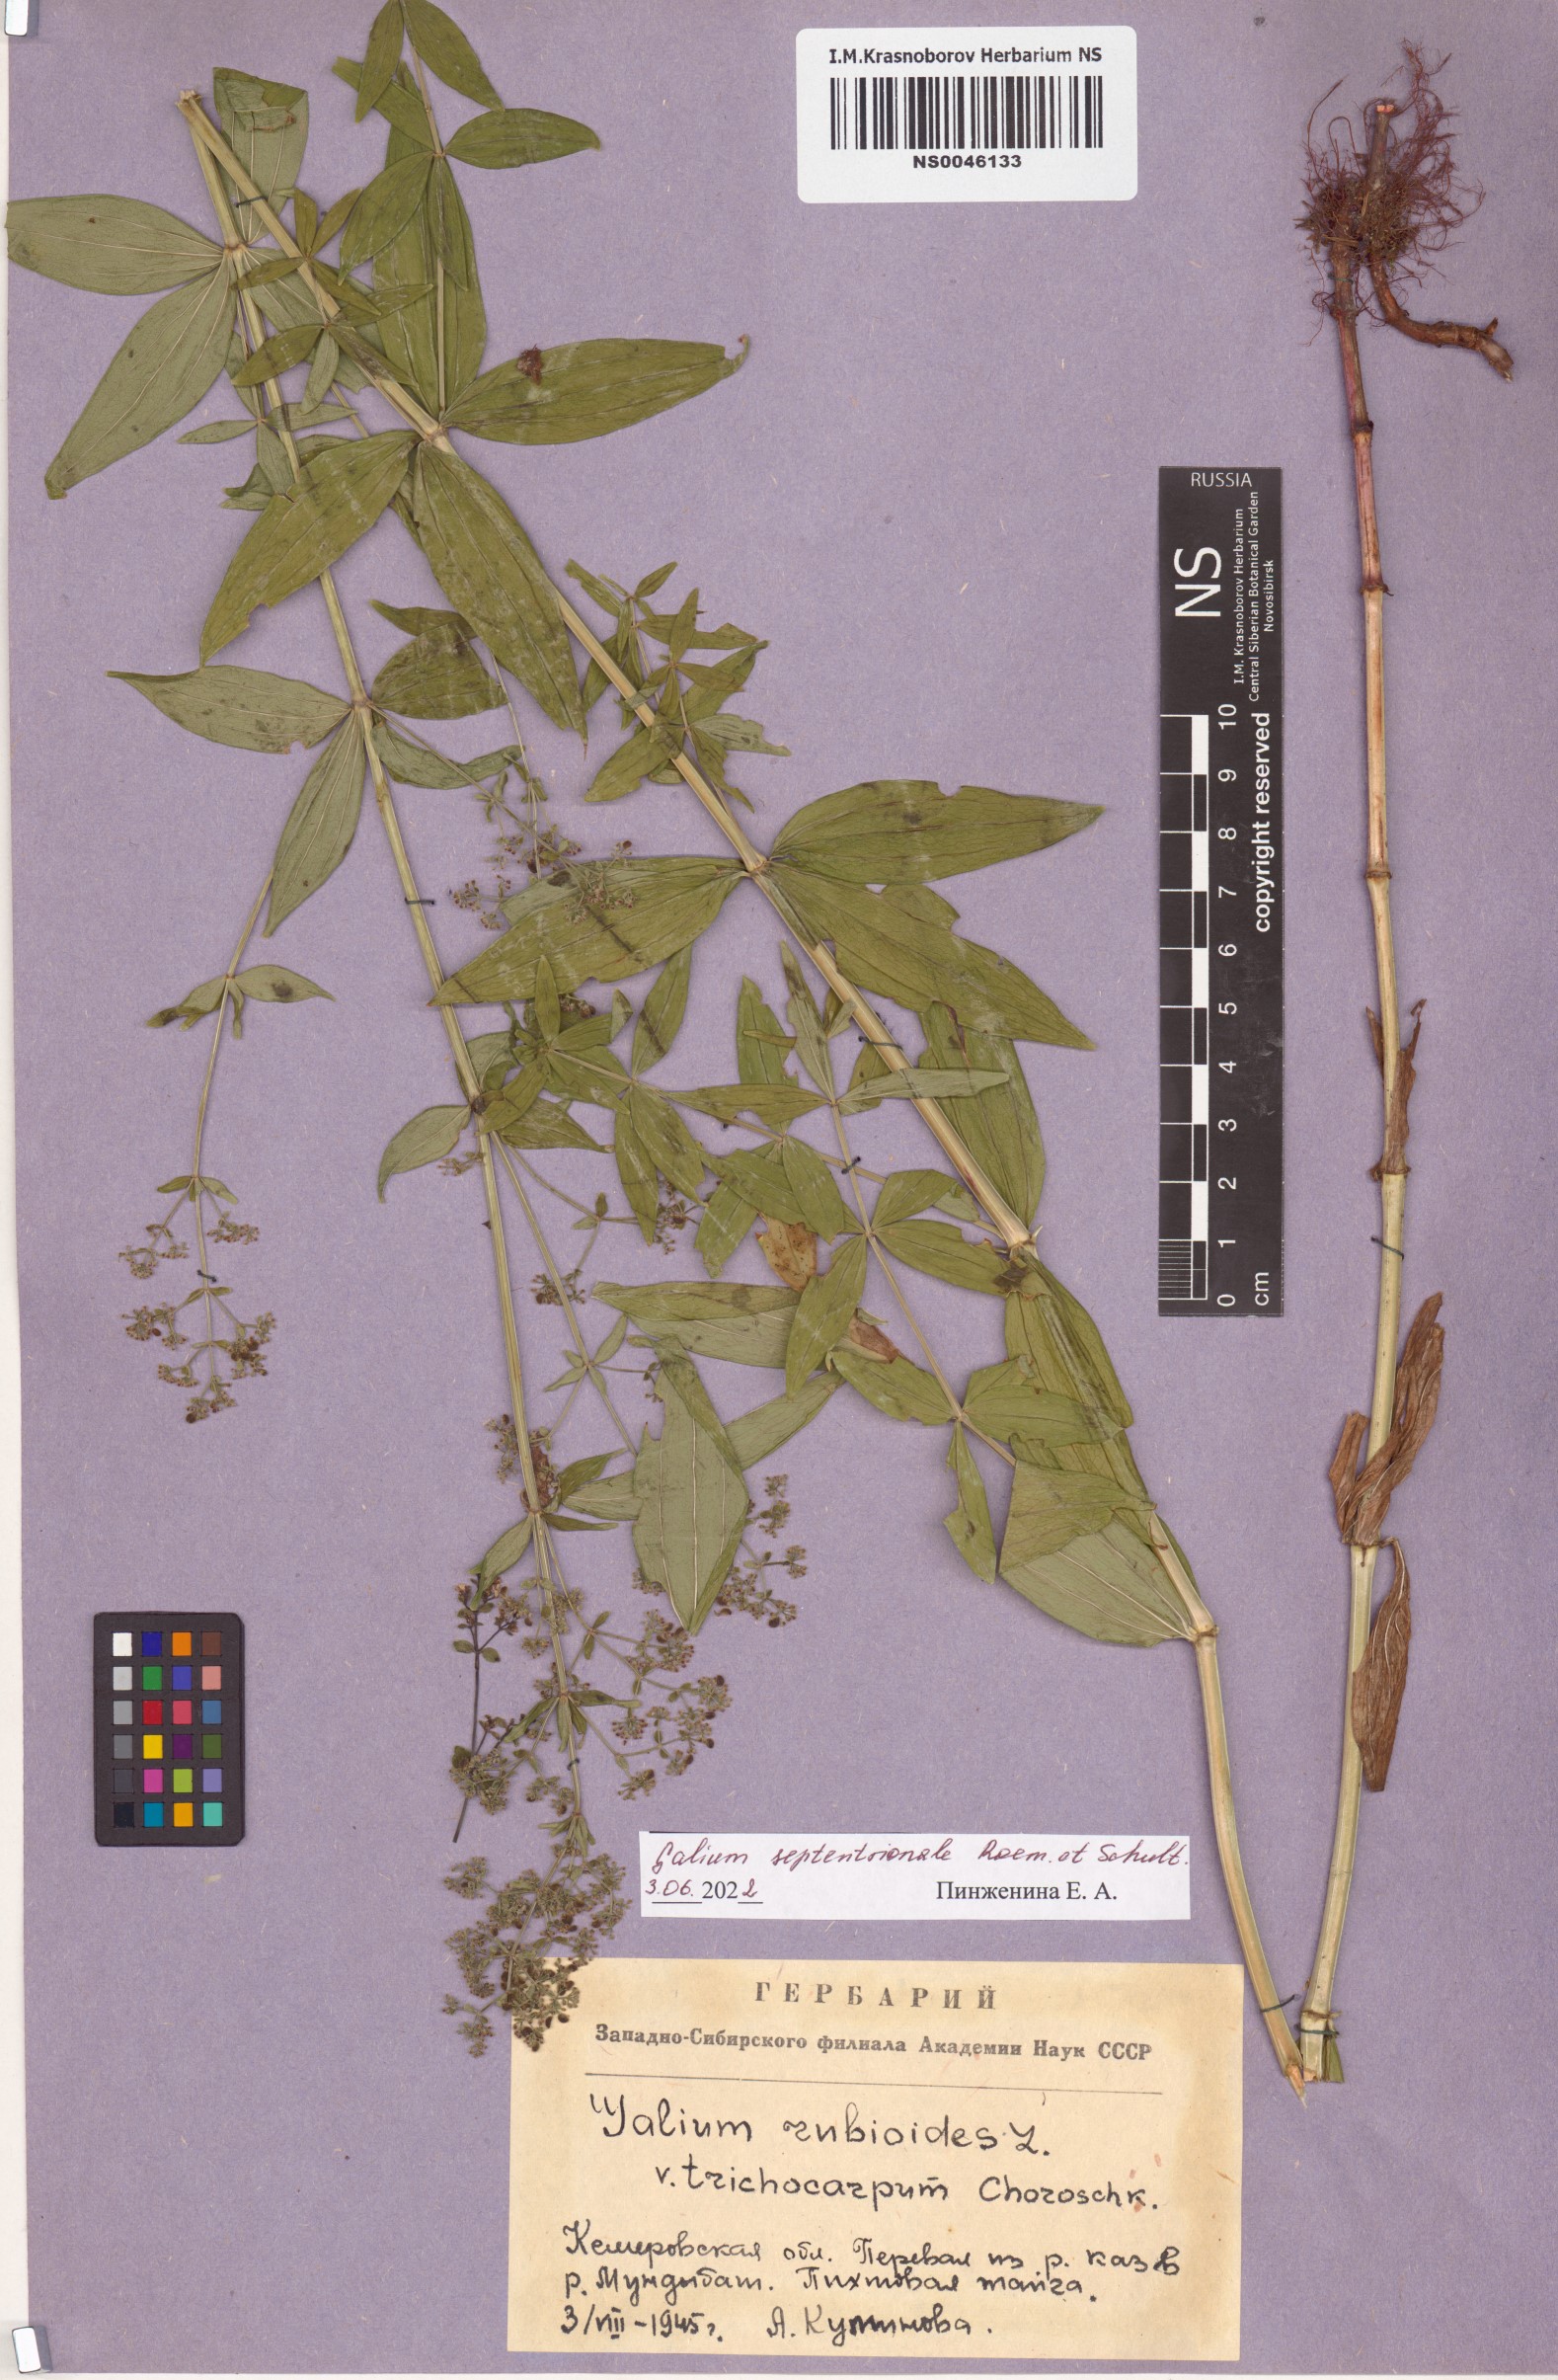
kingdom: Plantae
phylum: Tracheophyta
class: Magnoliopsida
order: Gentianales
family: Rubiaceae
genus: Galium
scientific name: Galium boreale
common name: Northern bedstraw
